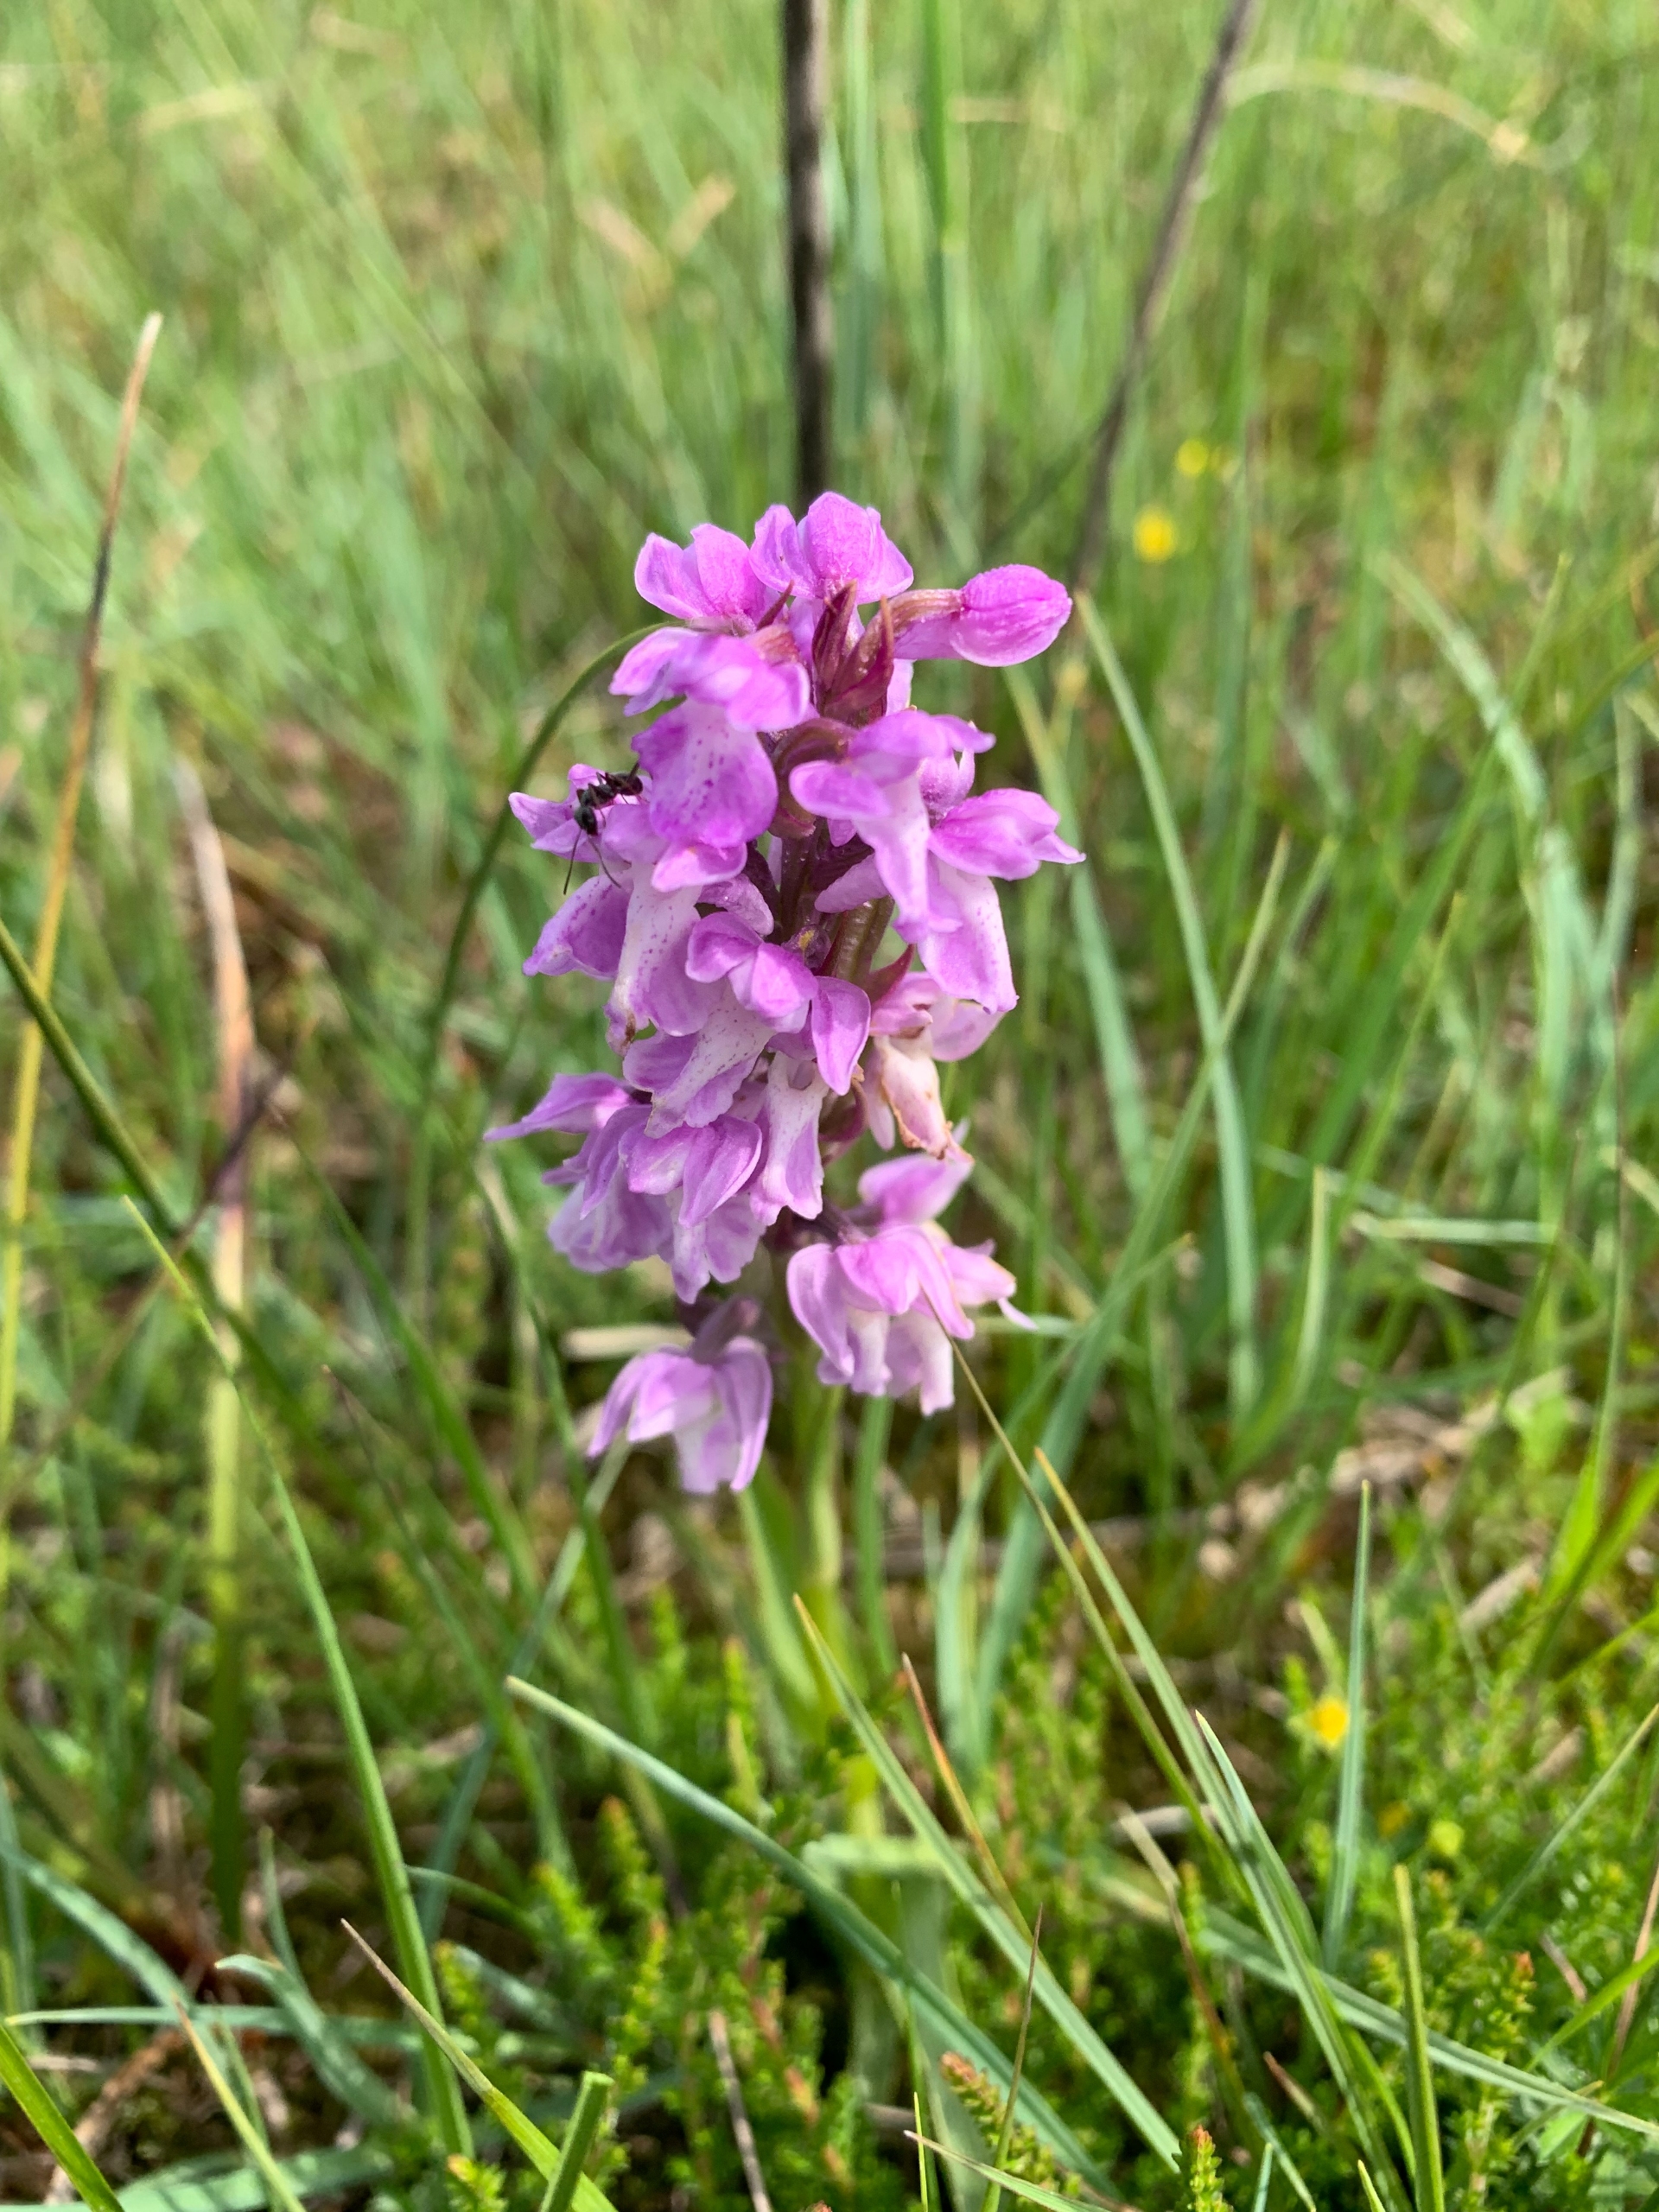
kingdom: Plantae
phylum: Tracheophyta
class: Liliopsida
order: Asparagales
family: Orchidaceae
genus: Dactylorhiza
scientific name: Dactylorhiza majalis
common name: Mos-gøgeurt
